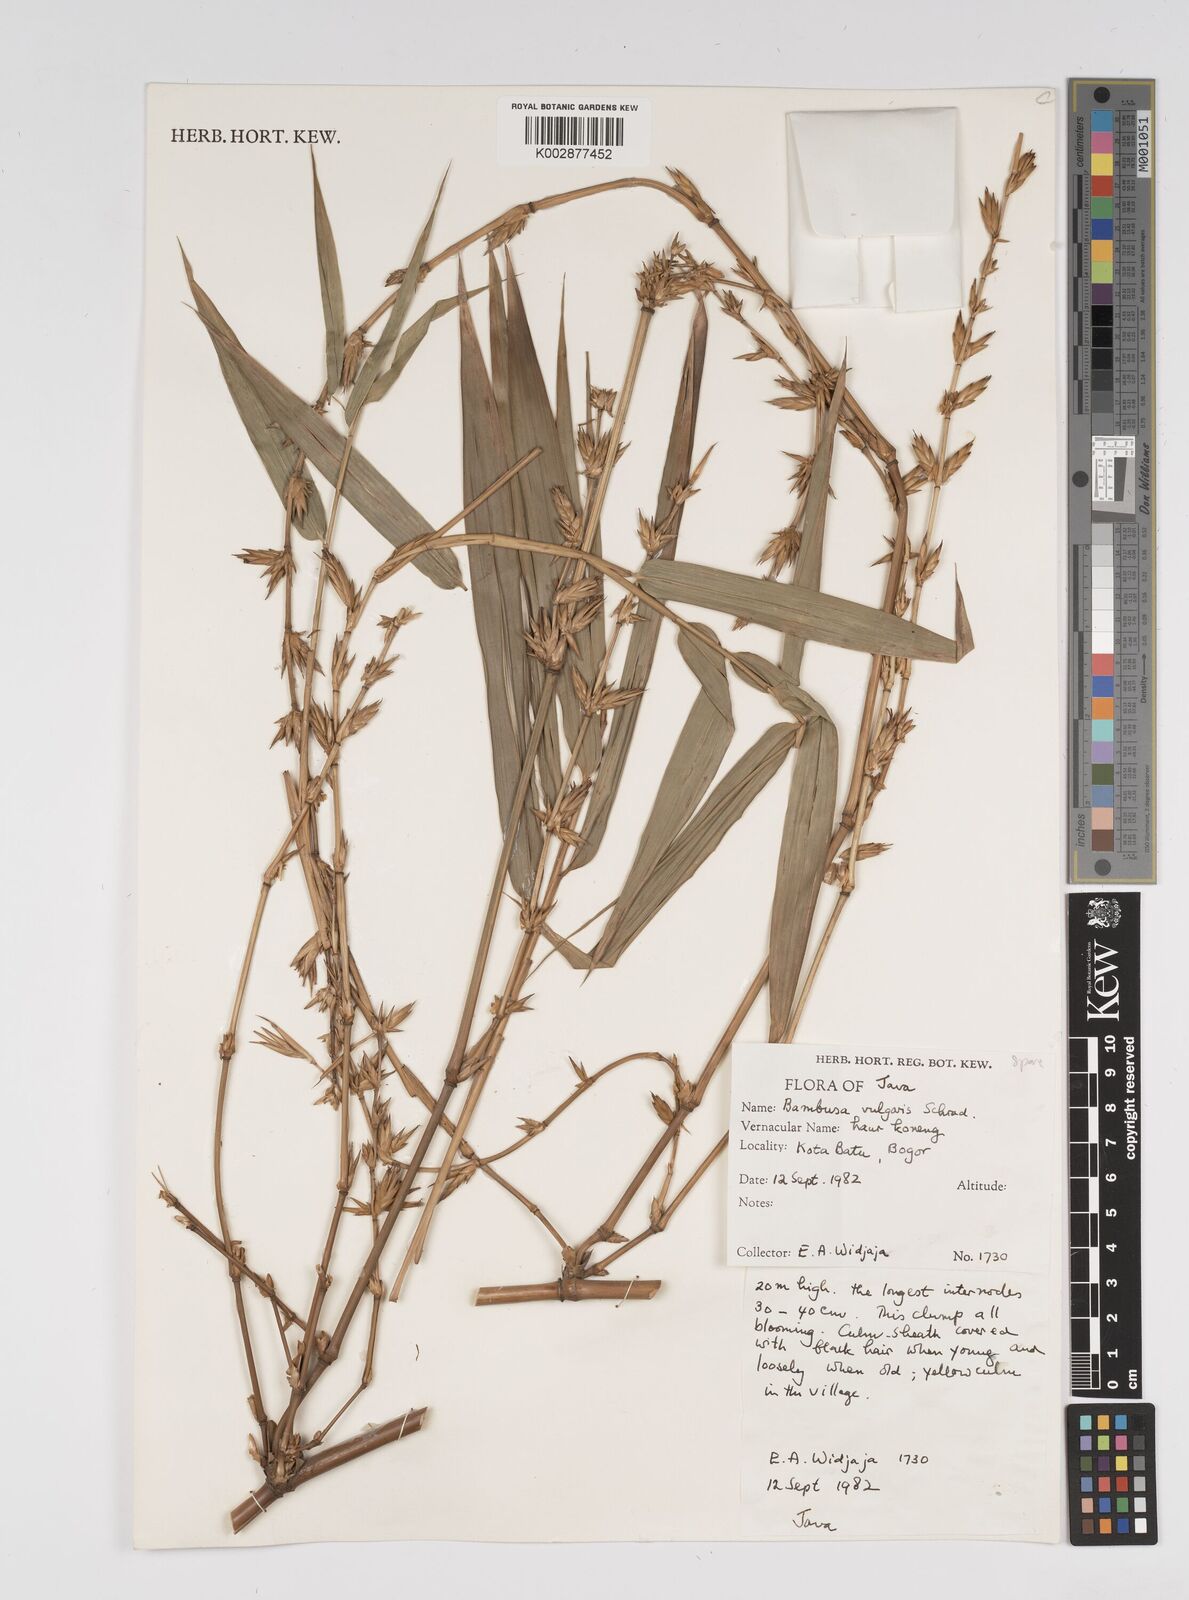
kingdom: Plantae
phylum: Tracheophyta
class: Liliopsida
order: Poales
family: Poaceae
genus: Bambusa
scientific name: Bambusa vulgaris
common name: Common bamboo
